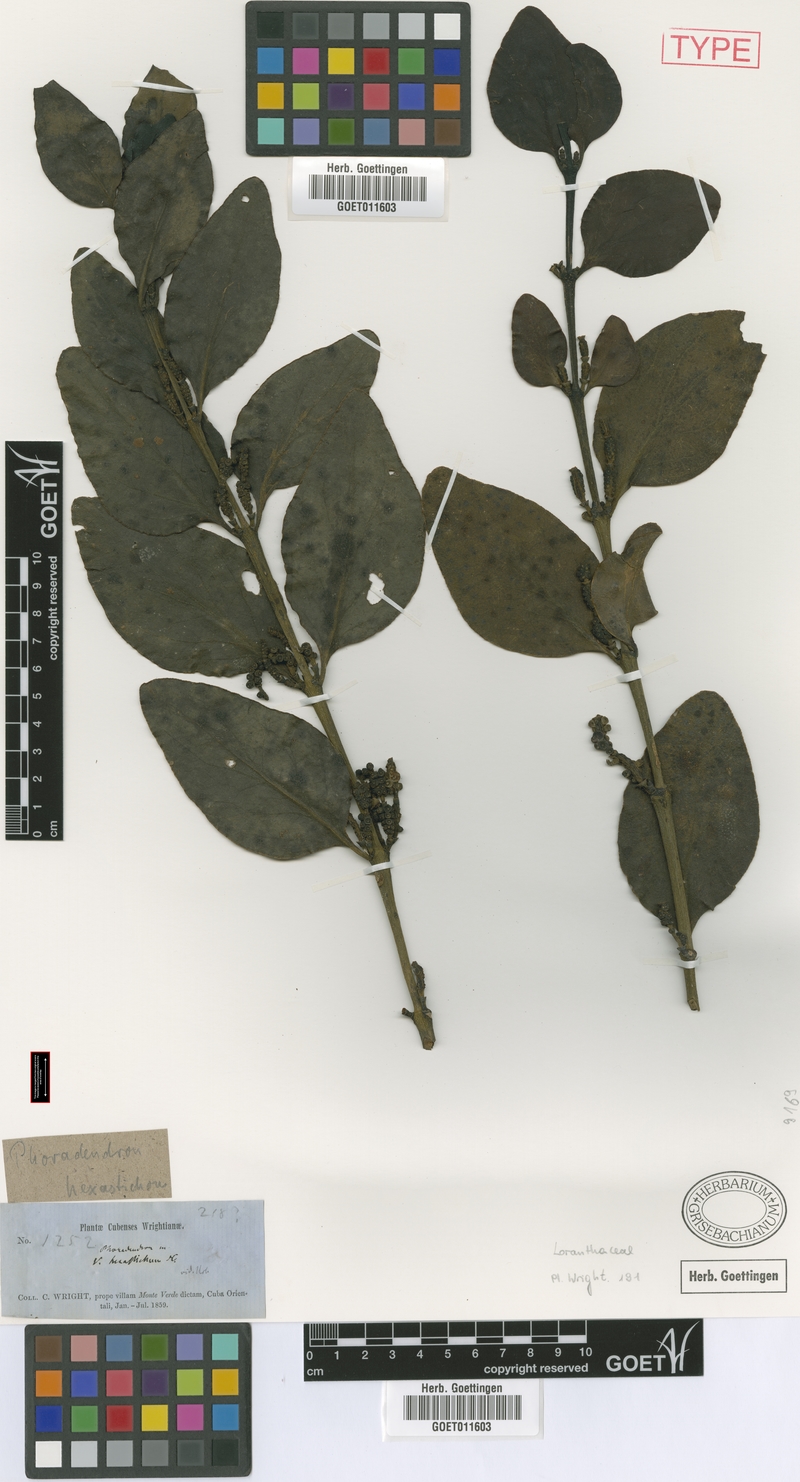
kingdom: Plantae
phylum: Tracheophyta
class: Magnoliopsida
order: Santalales
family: Viscaceae
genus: Phoradendron
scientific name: Phoradendron hexastichum
